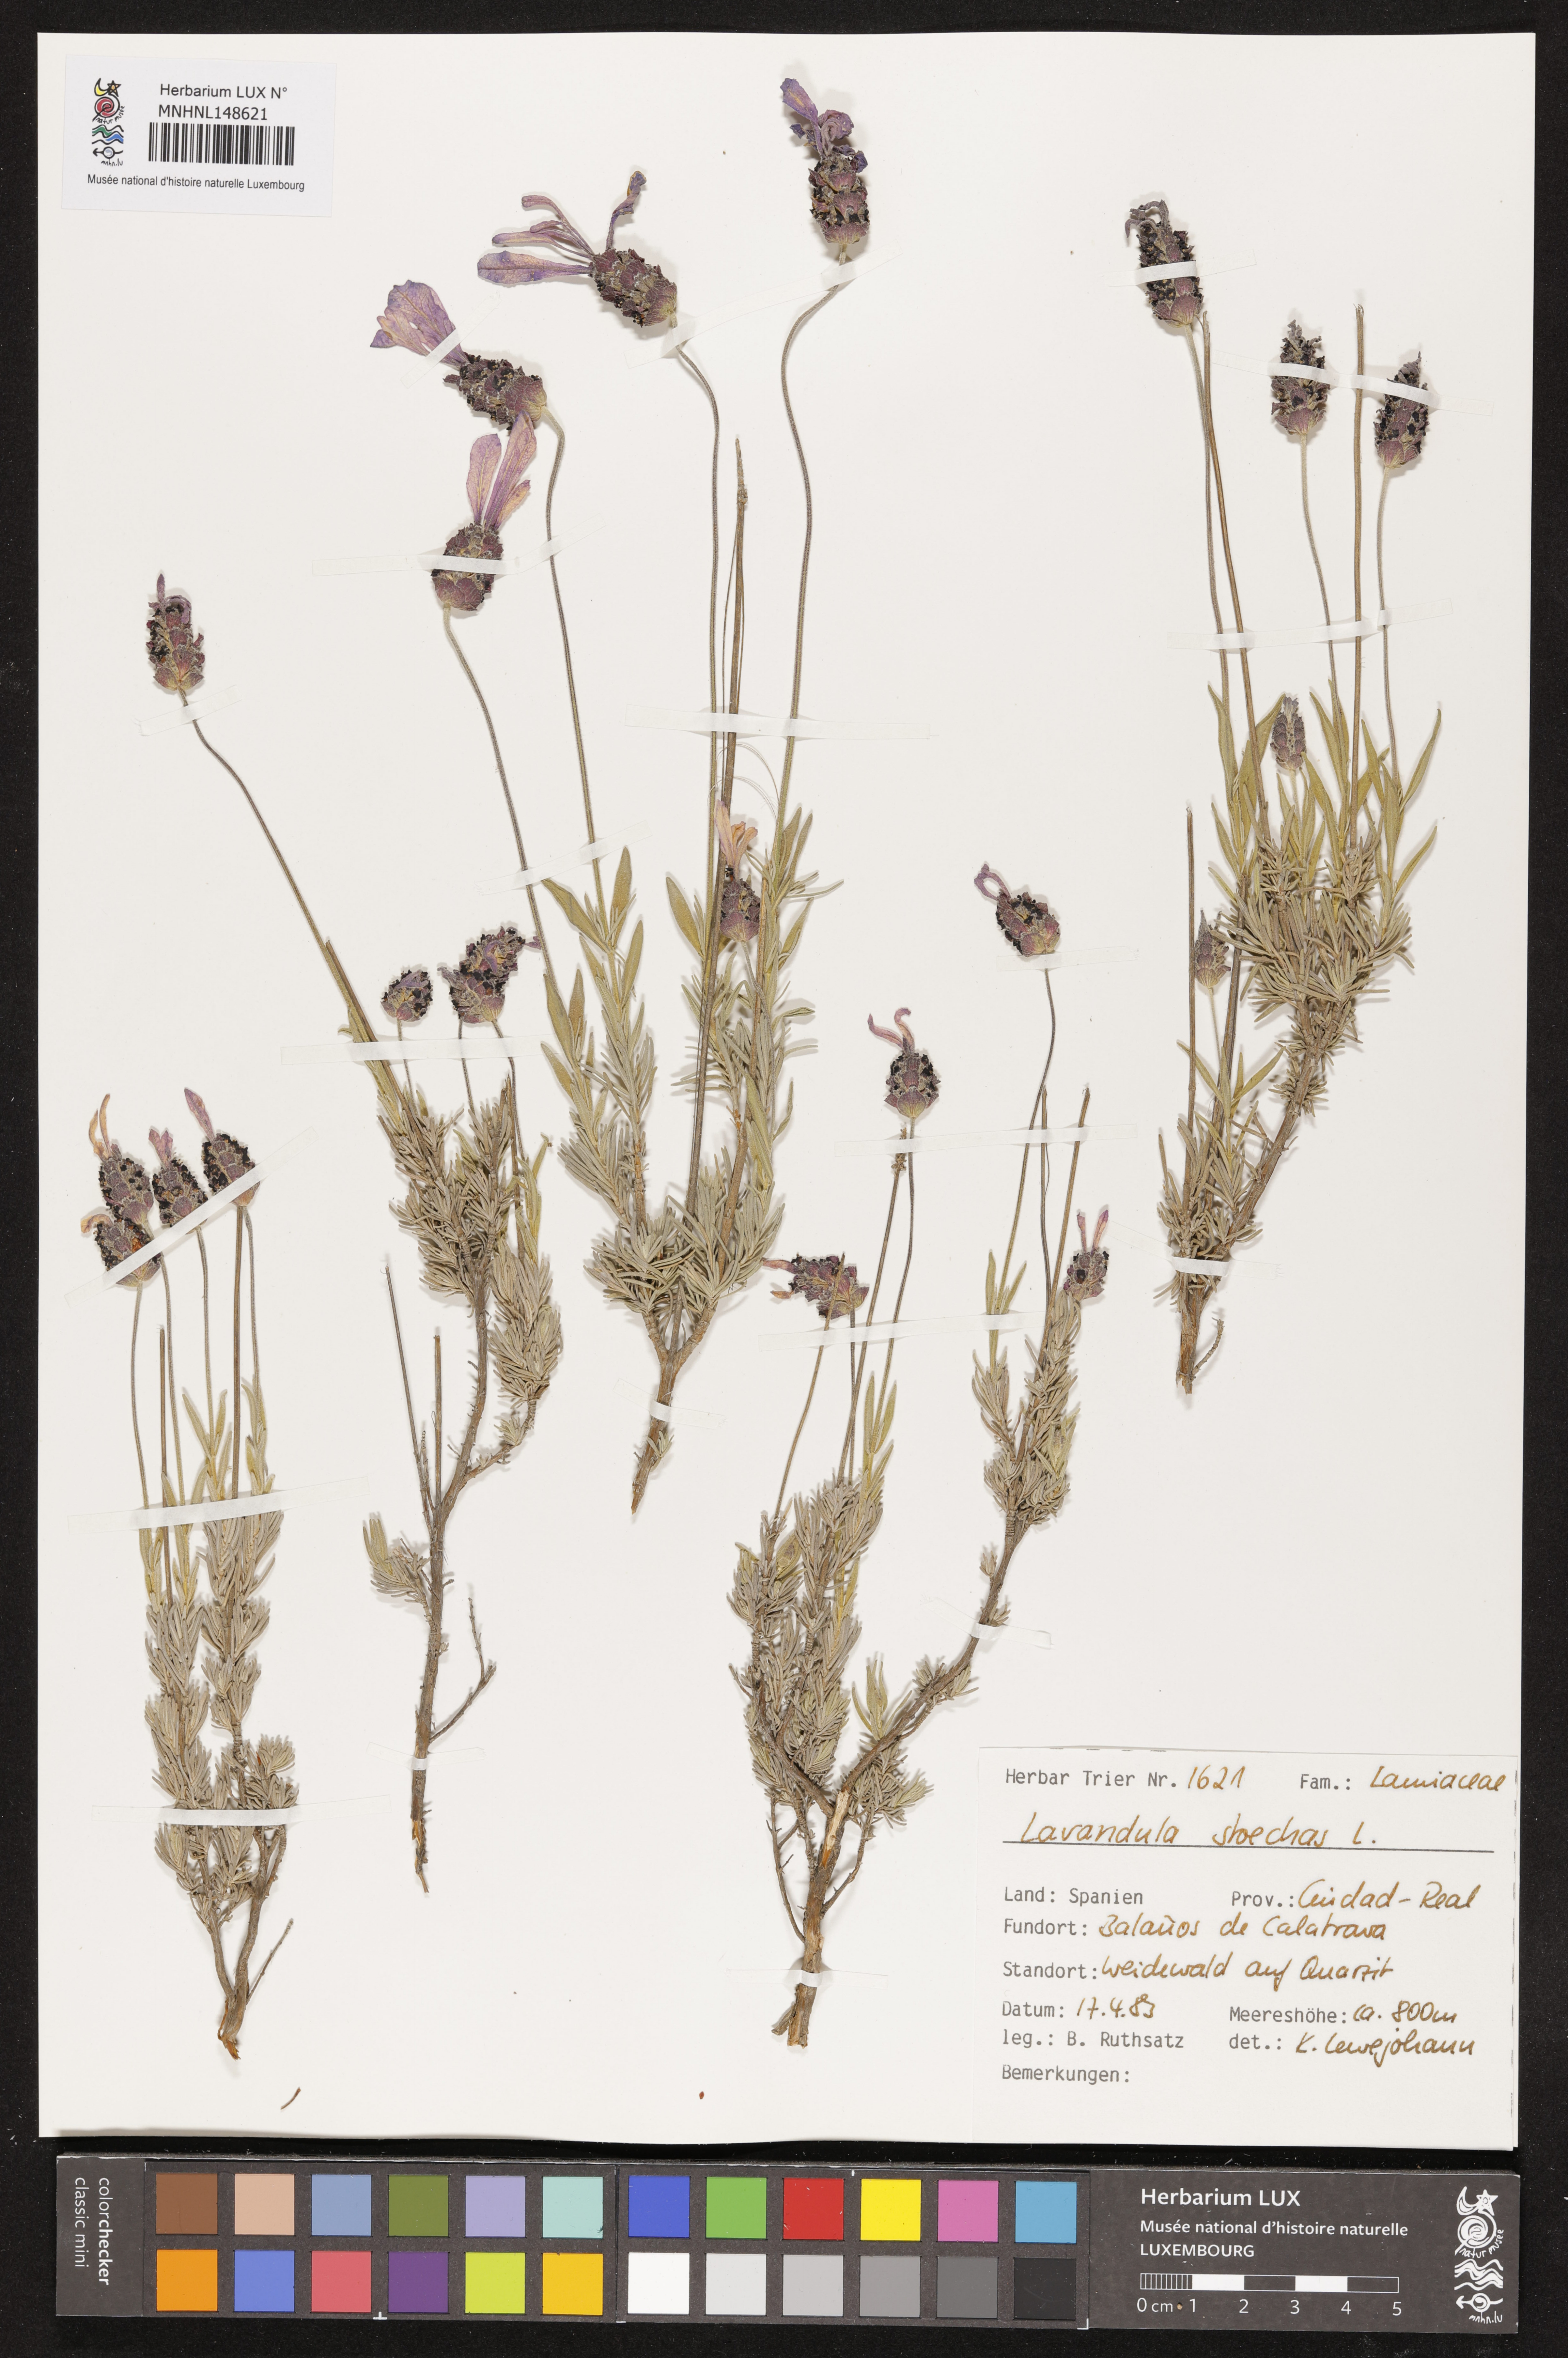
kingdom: Plantae
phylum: Tracheophyta
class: Magnoliopsida
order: Lamiales
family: Lamiaceae
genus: Lavandula
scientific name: Lavandula stoechas
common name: French lavender
